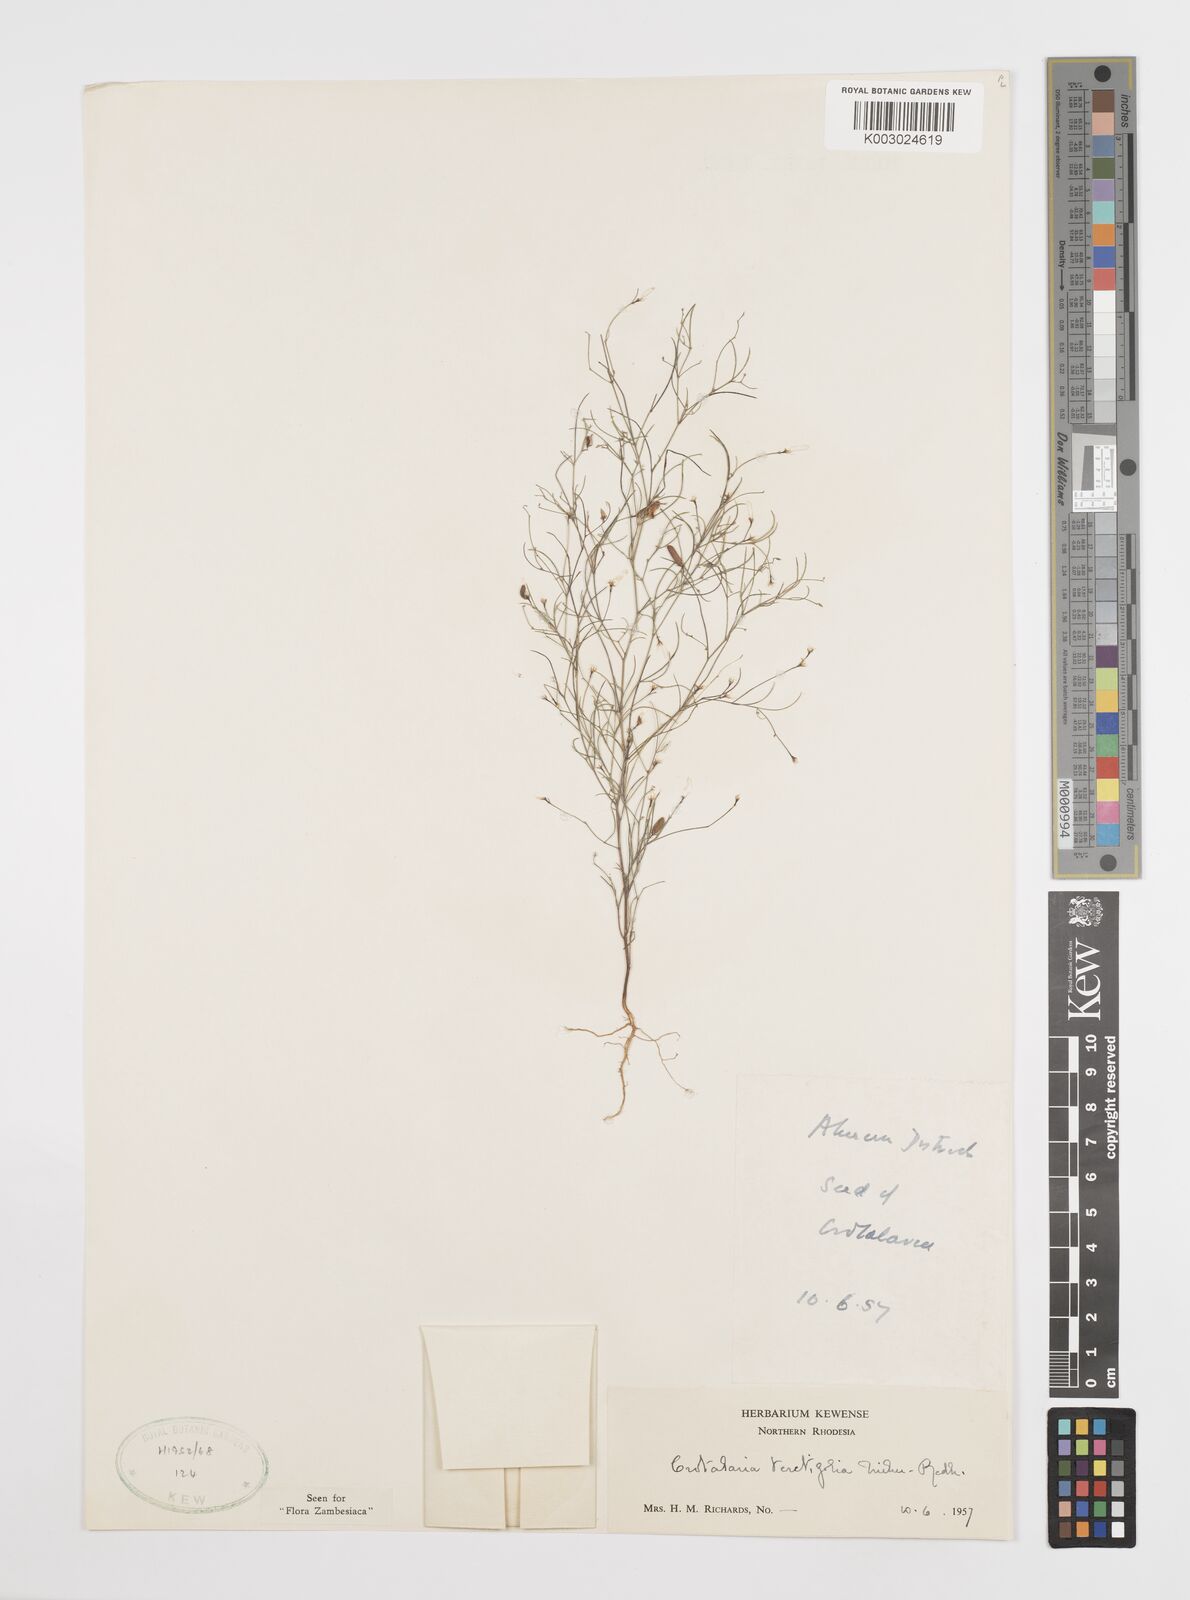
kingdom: Plantae
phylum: Tracheophyta
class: Magnoliopsida
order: Fabales
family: Fabaceae
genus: Crotalaria
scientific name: Crotalaria teretifolia
